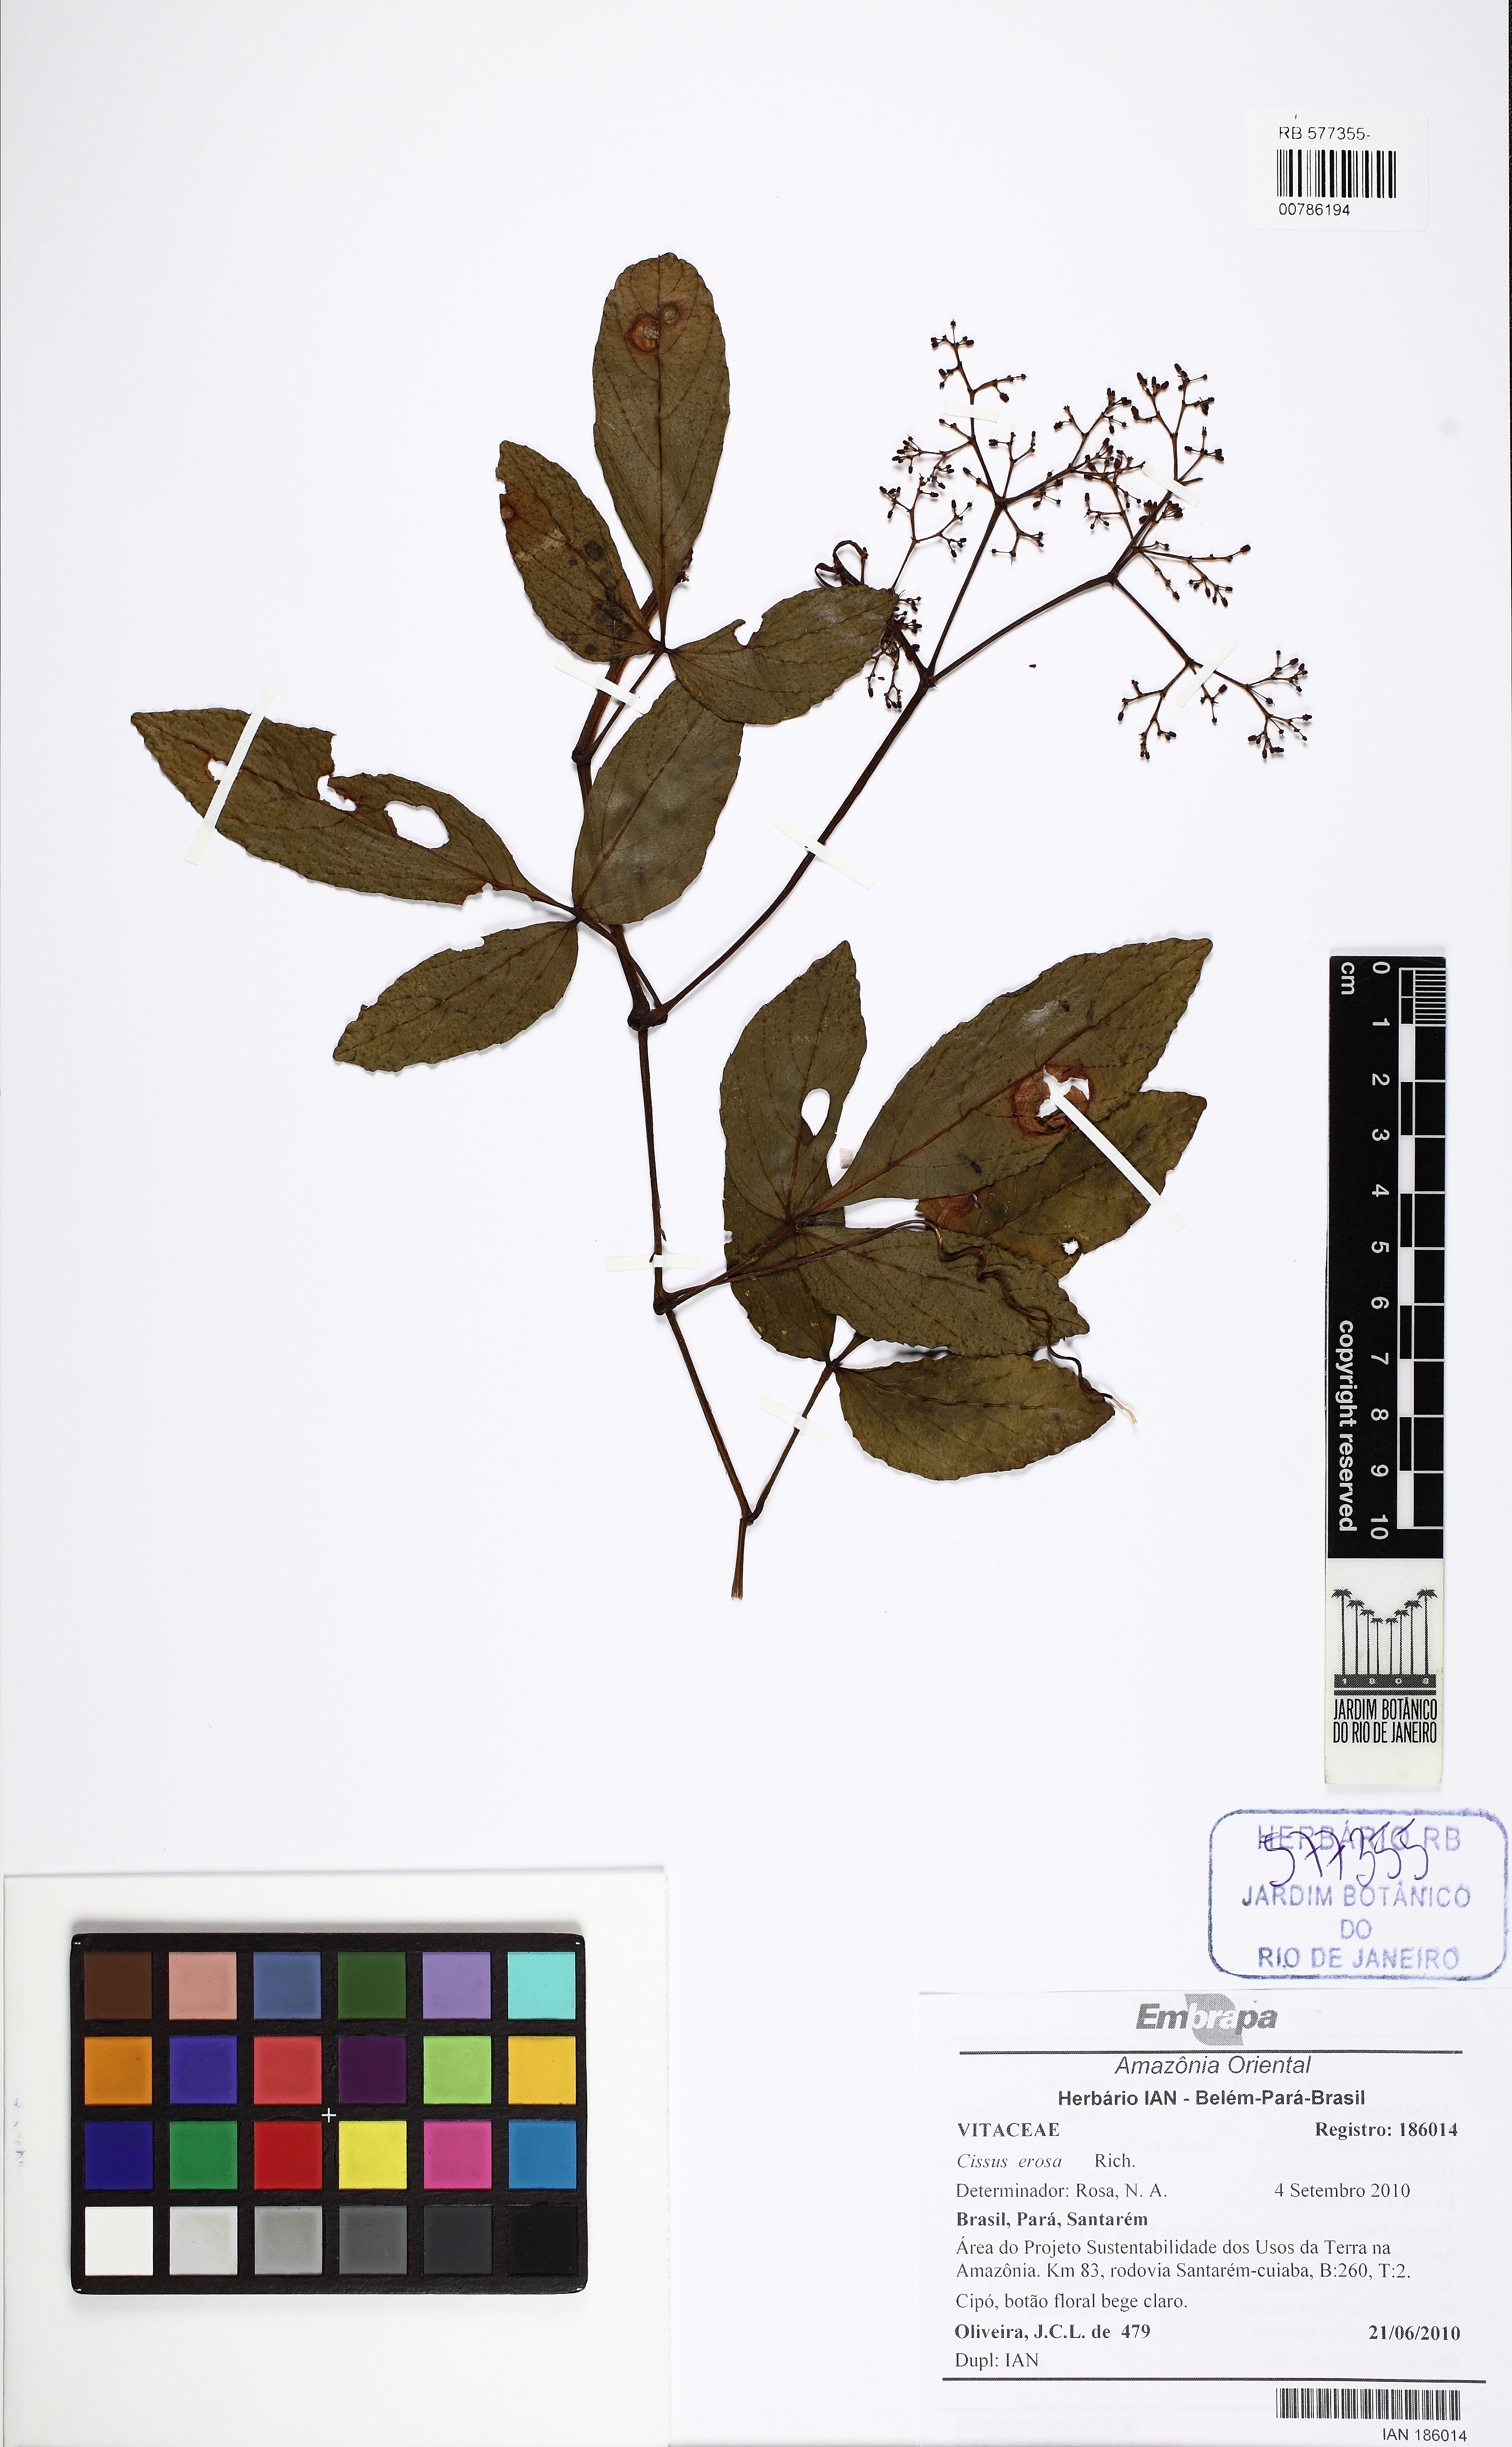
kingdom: Plantae
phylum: Tracheophyta
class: Magnoliopsida
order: Vitales
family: Vitaceae
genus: Cissus
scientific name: Cissus erosa
